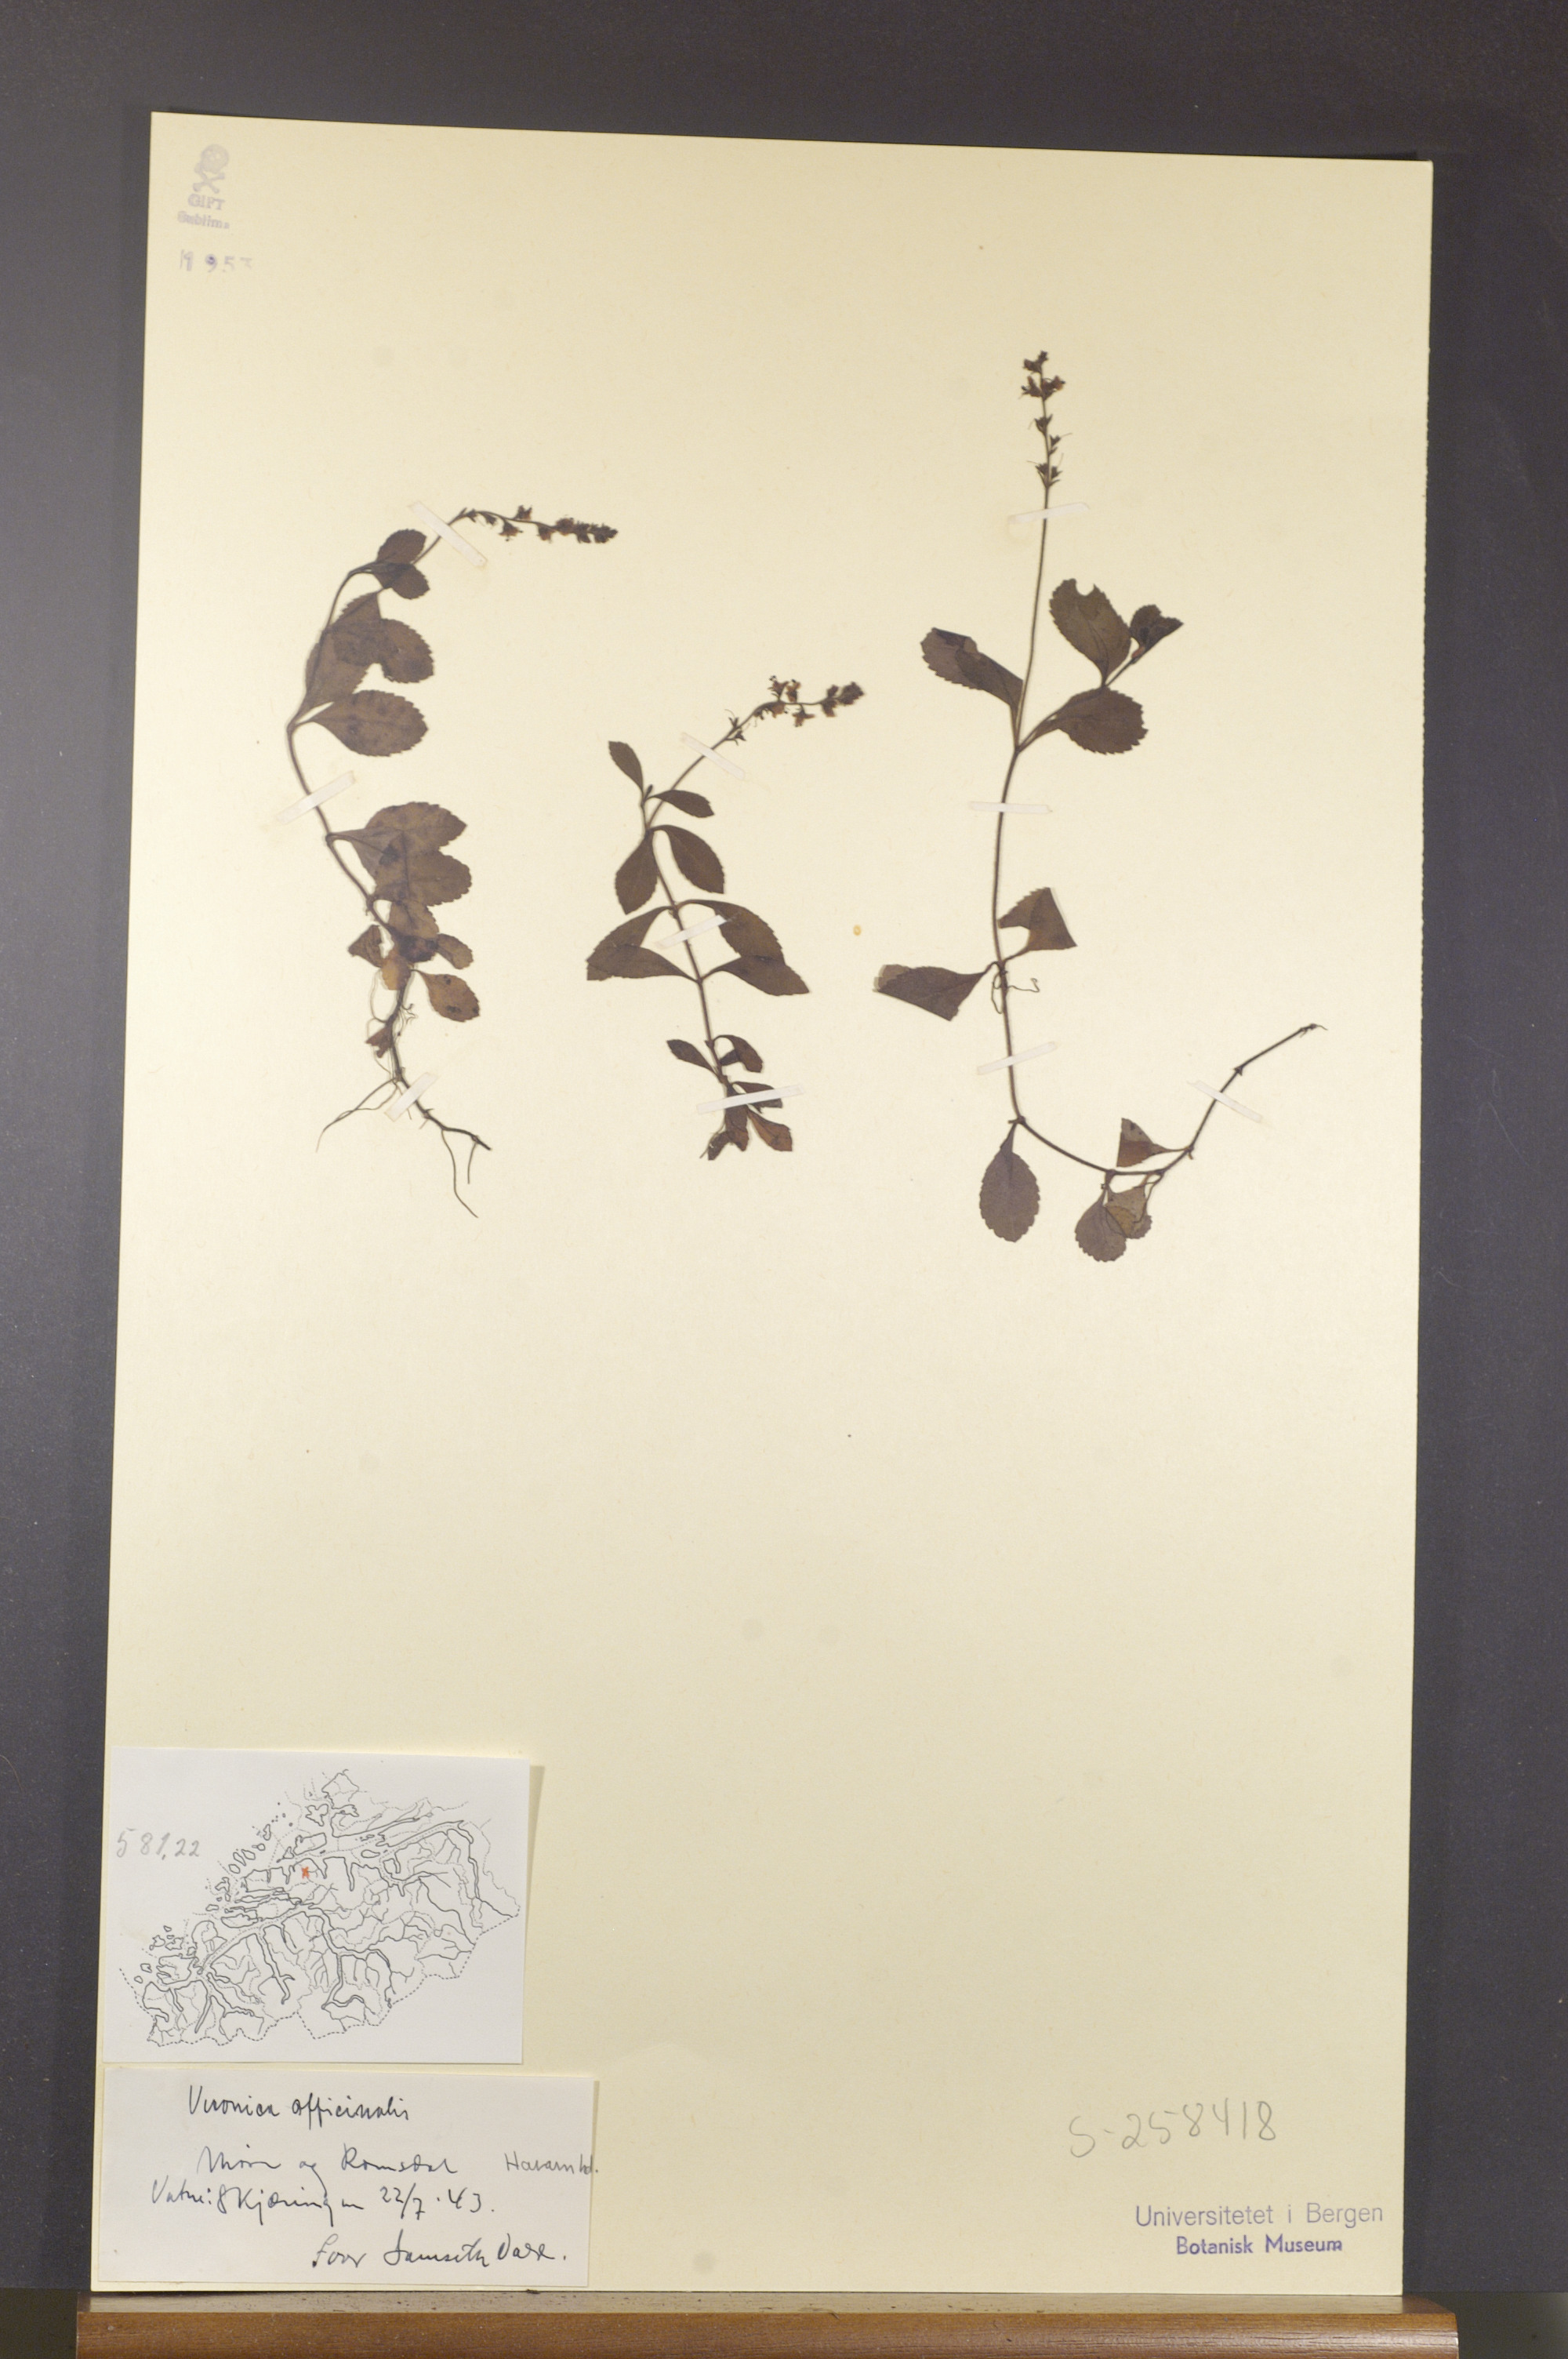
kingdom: Plantae
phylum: Tracheophyta
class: Magnoliopsida
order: Lamiales
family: Plantaginaceae
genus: Veronica
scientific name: Veronica officinalis
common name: Common speedwell
